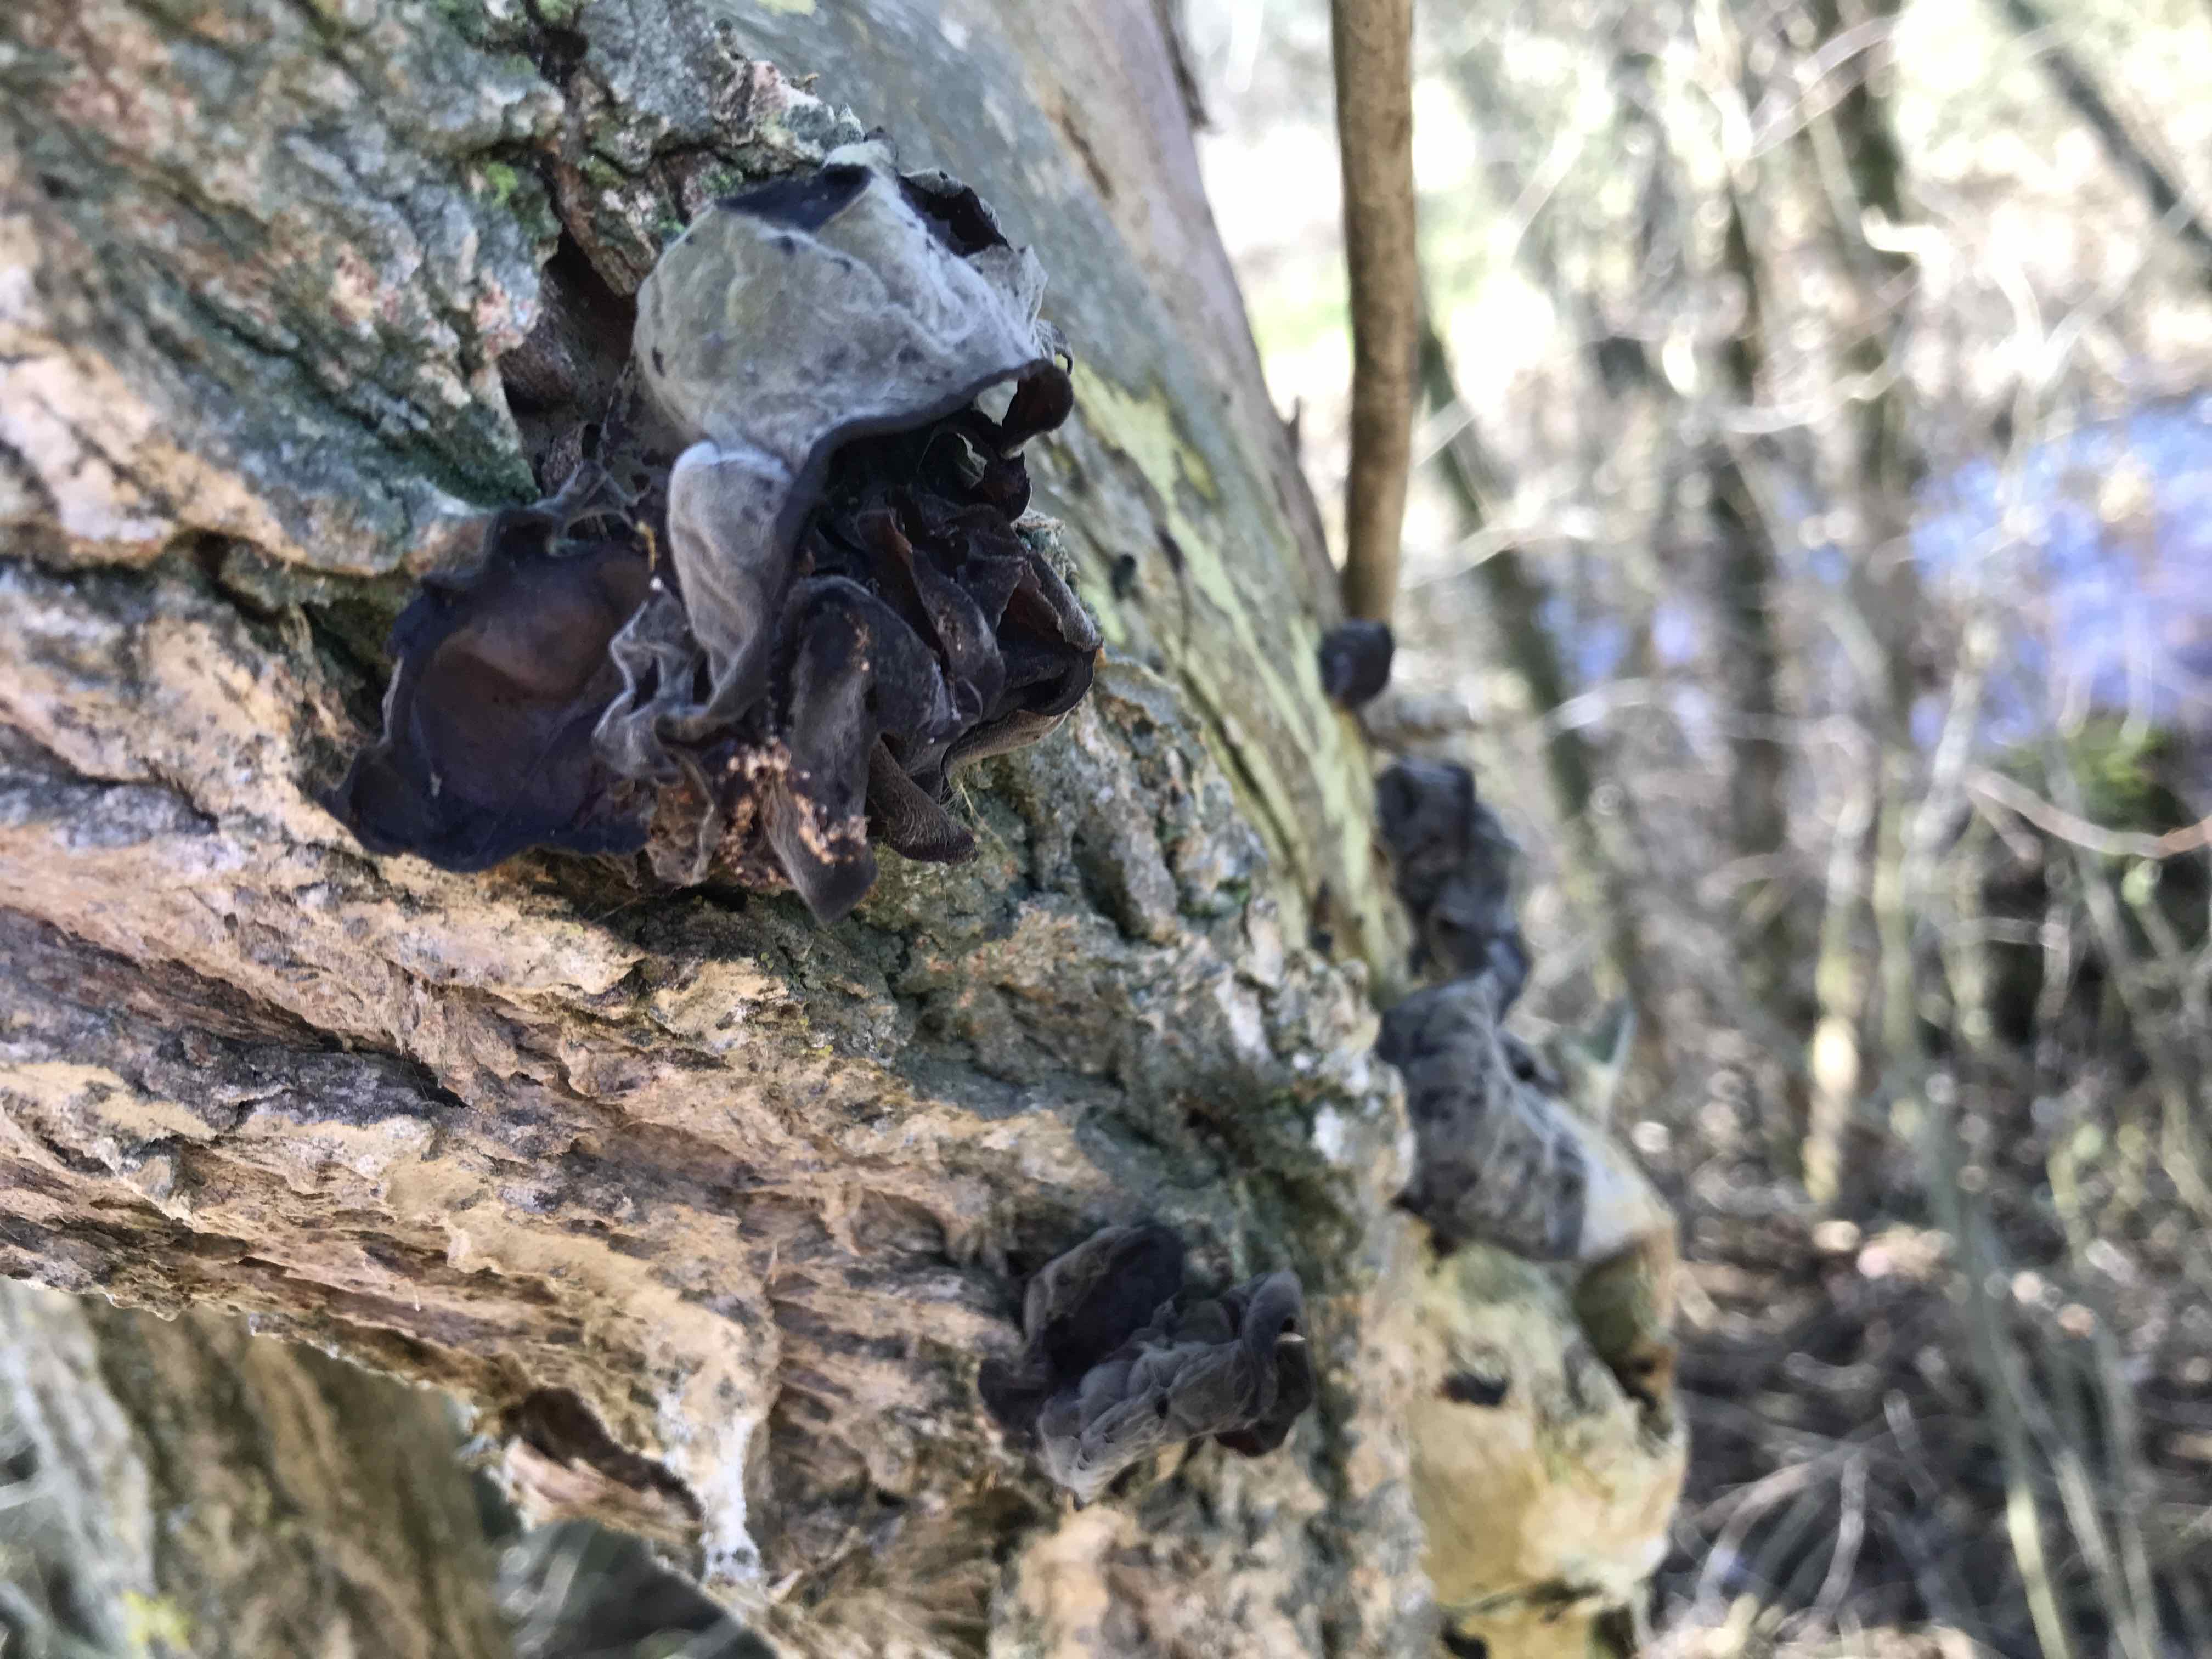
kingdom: Fungi
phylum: Basidiomycota
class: Agaricomycetes
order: Auriculariales
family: Auriculariaceae
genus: Auricularia
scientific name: Auricularia auricula-judae
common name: almindelig judasøre
